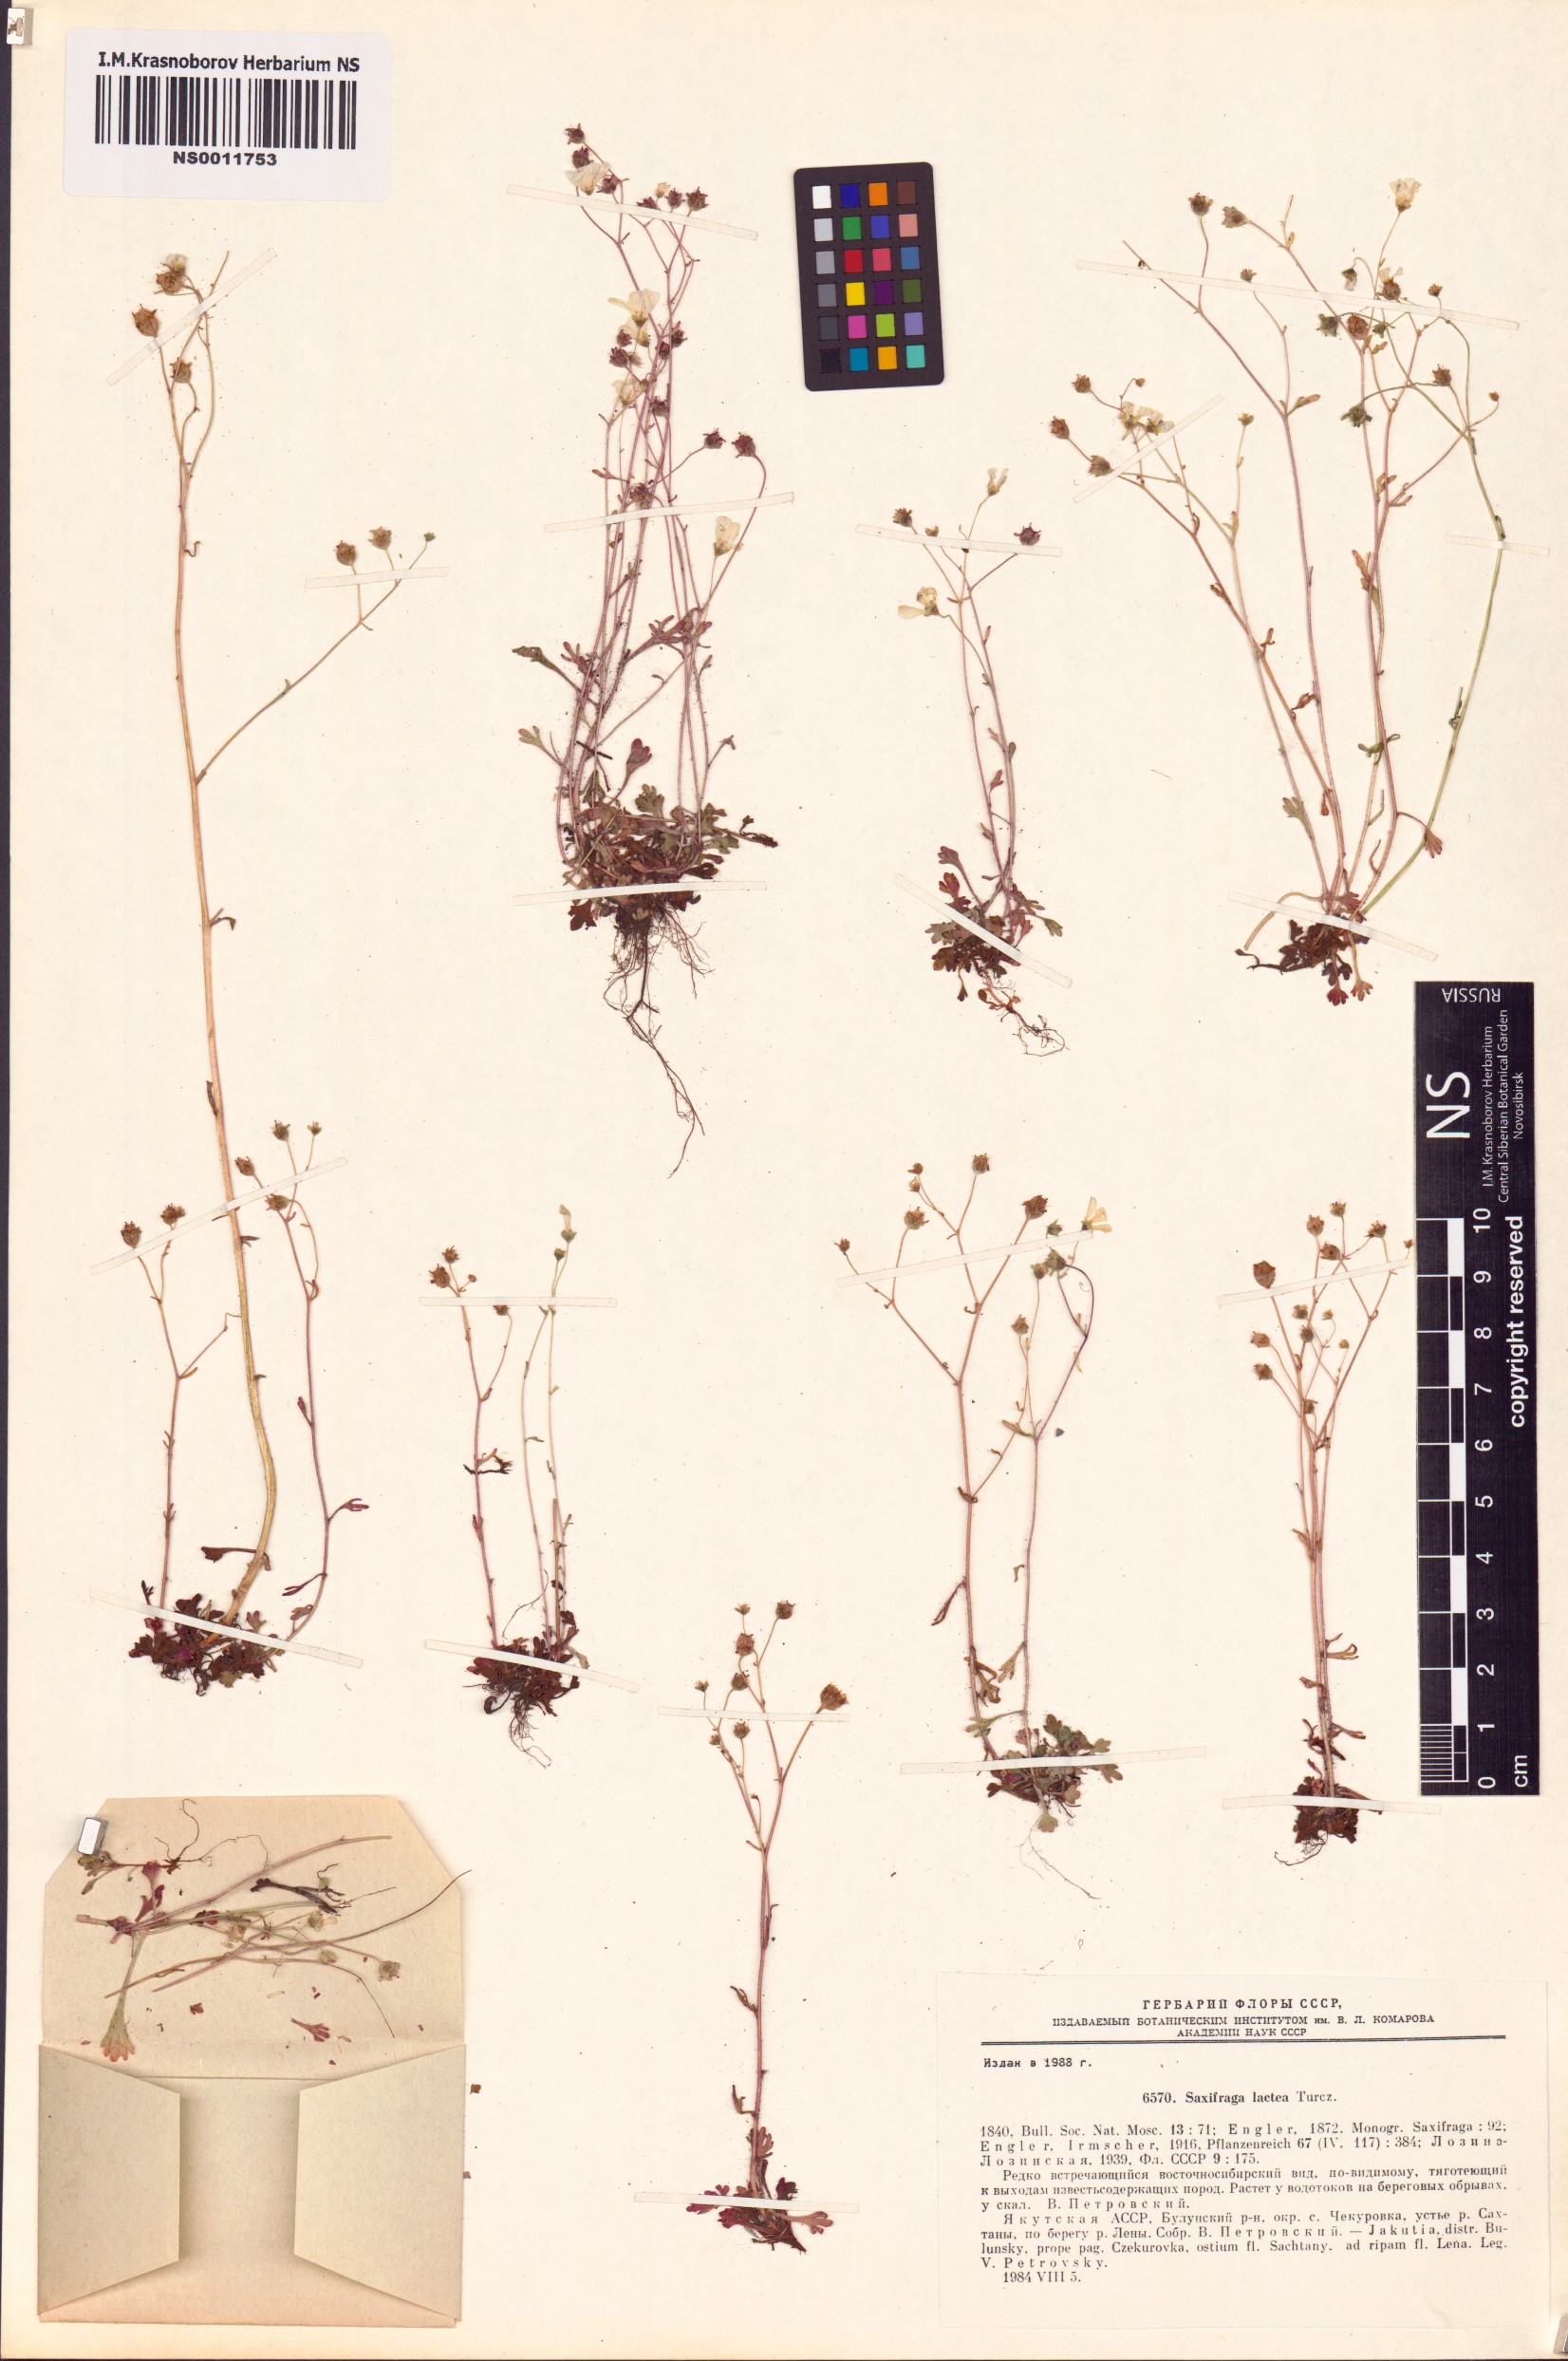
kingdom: Plantae
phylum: Tracheophyta
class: Magnoliopsida
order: Saxifragales
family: Saxifragaceae
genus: Saxifraga
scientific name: Saxifraga lactea
